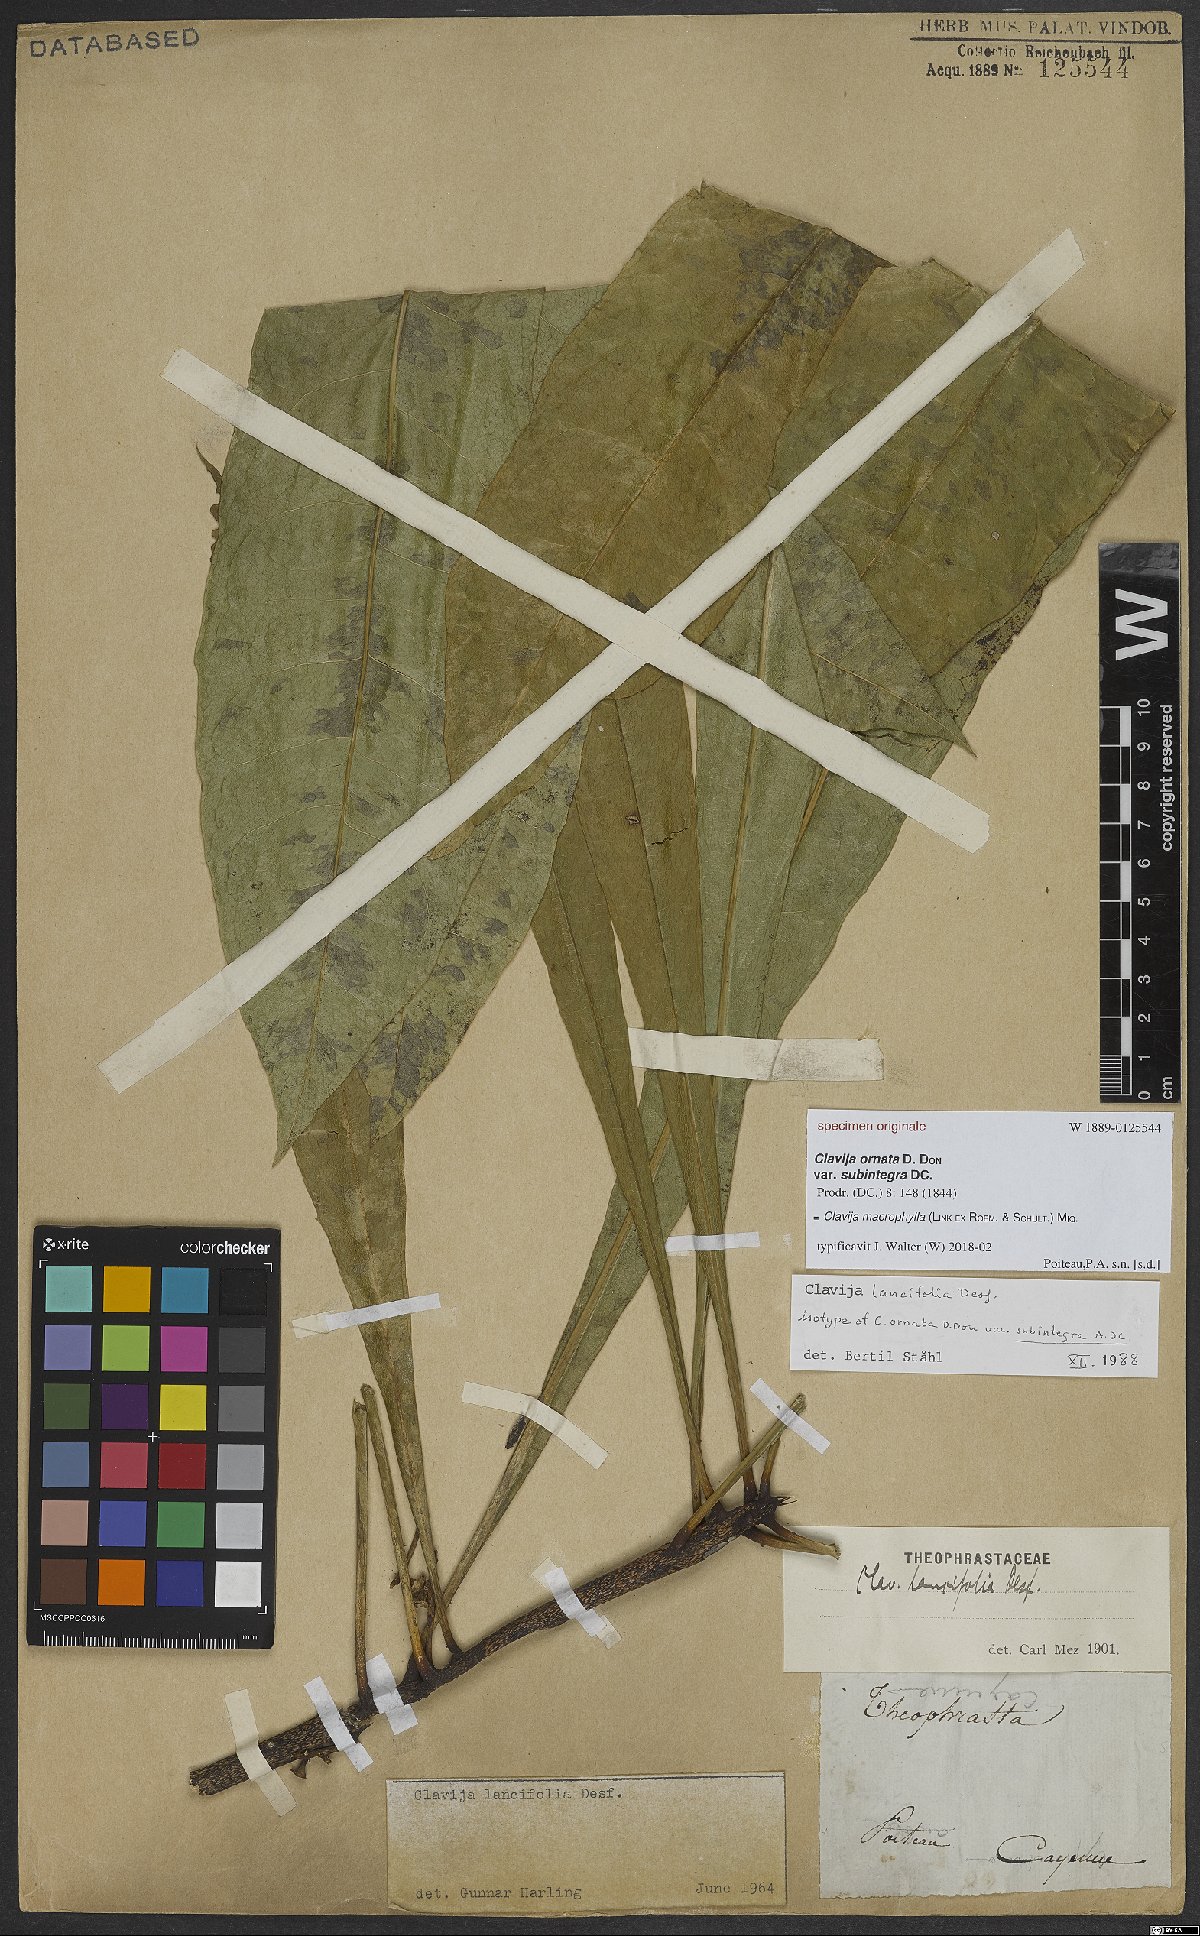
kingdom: Plantae
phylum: Tracheophyta
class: Magnoliopsida
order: Ericales
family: Primulaceae
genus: Clavija
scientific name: Clavija macrophylla
